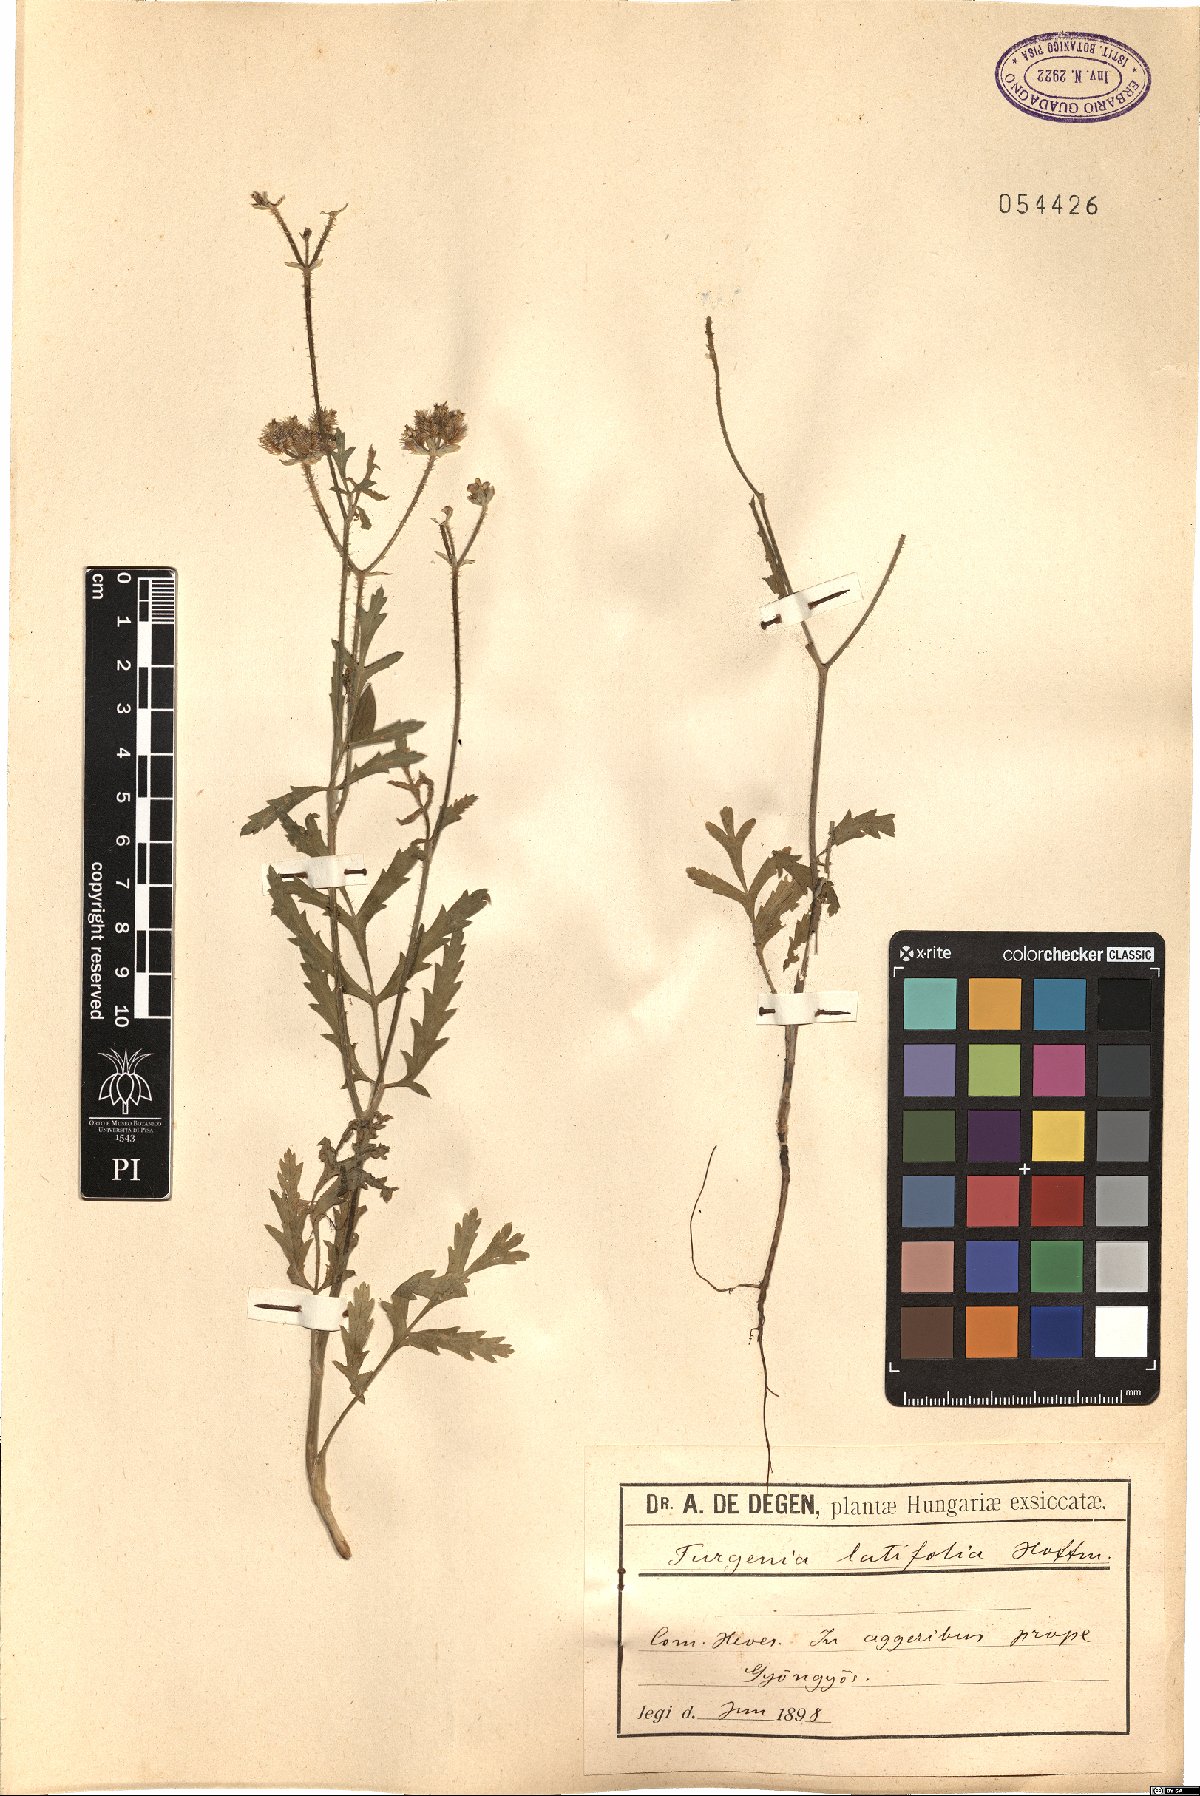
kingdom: Plantae
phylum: Tracheophyta
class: Magnoliopsida
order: Apiales
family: Apiaceae
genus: Turgenia
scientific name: Turgenia latifolia
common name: Greater bur-parsley
